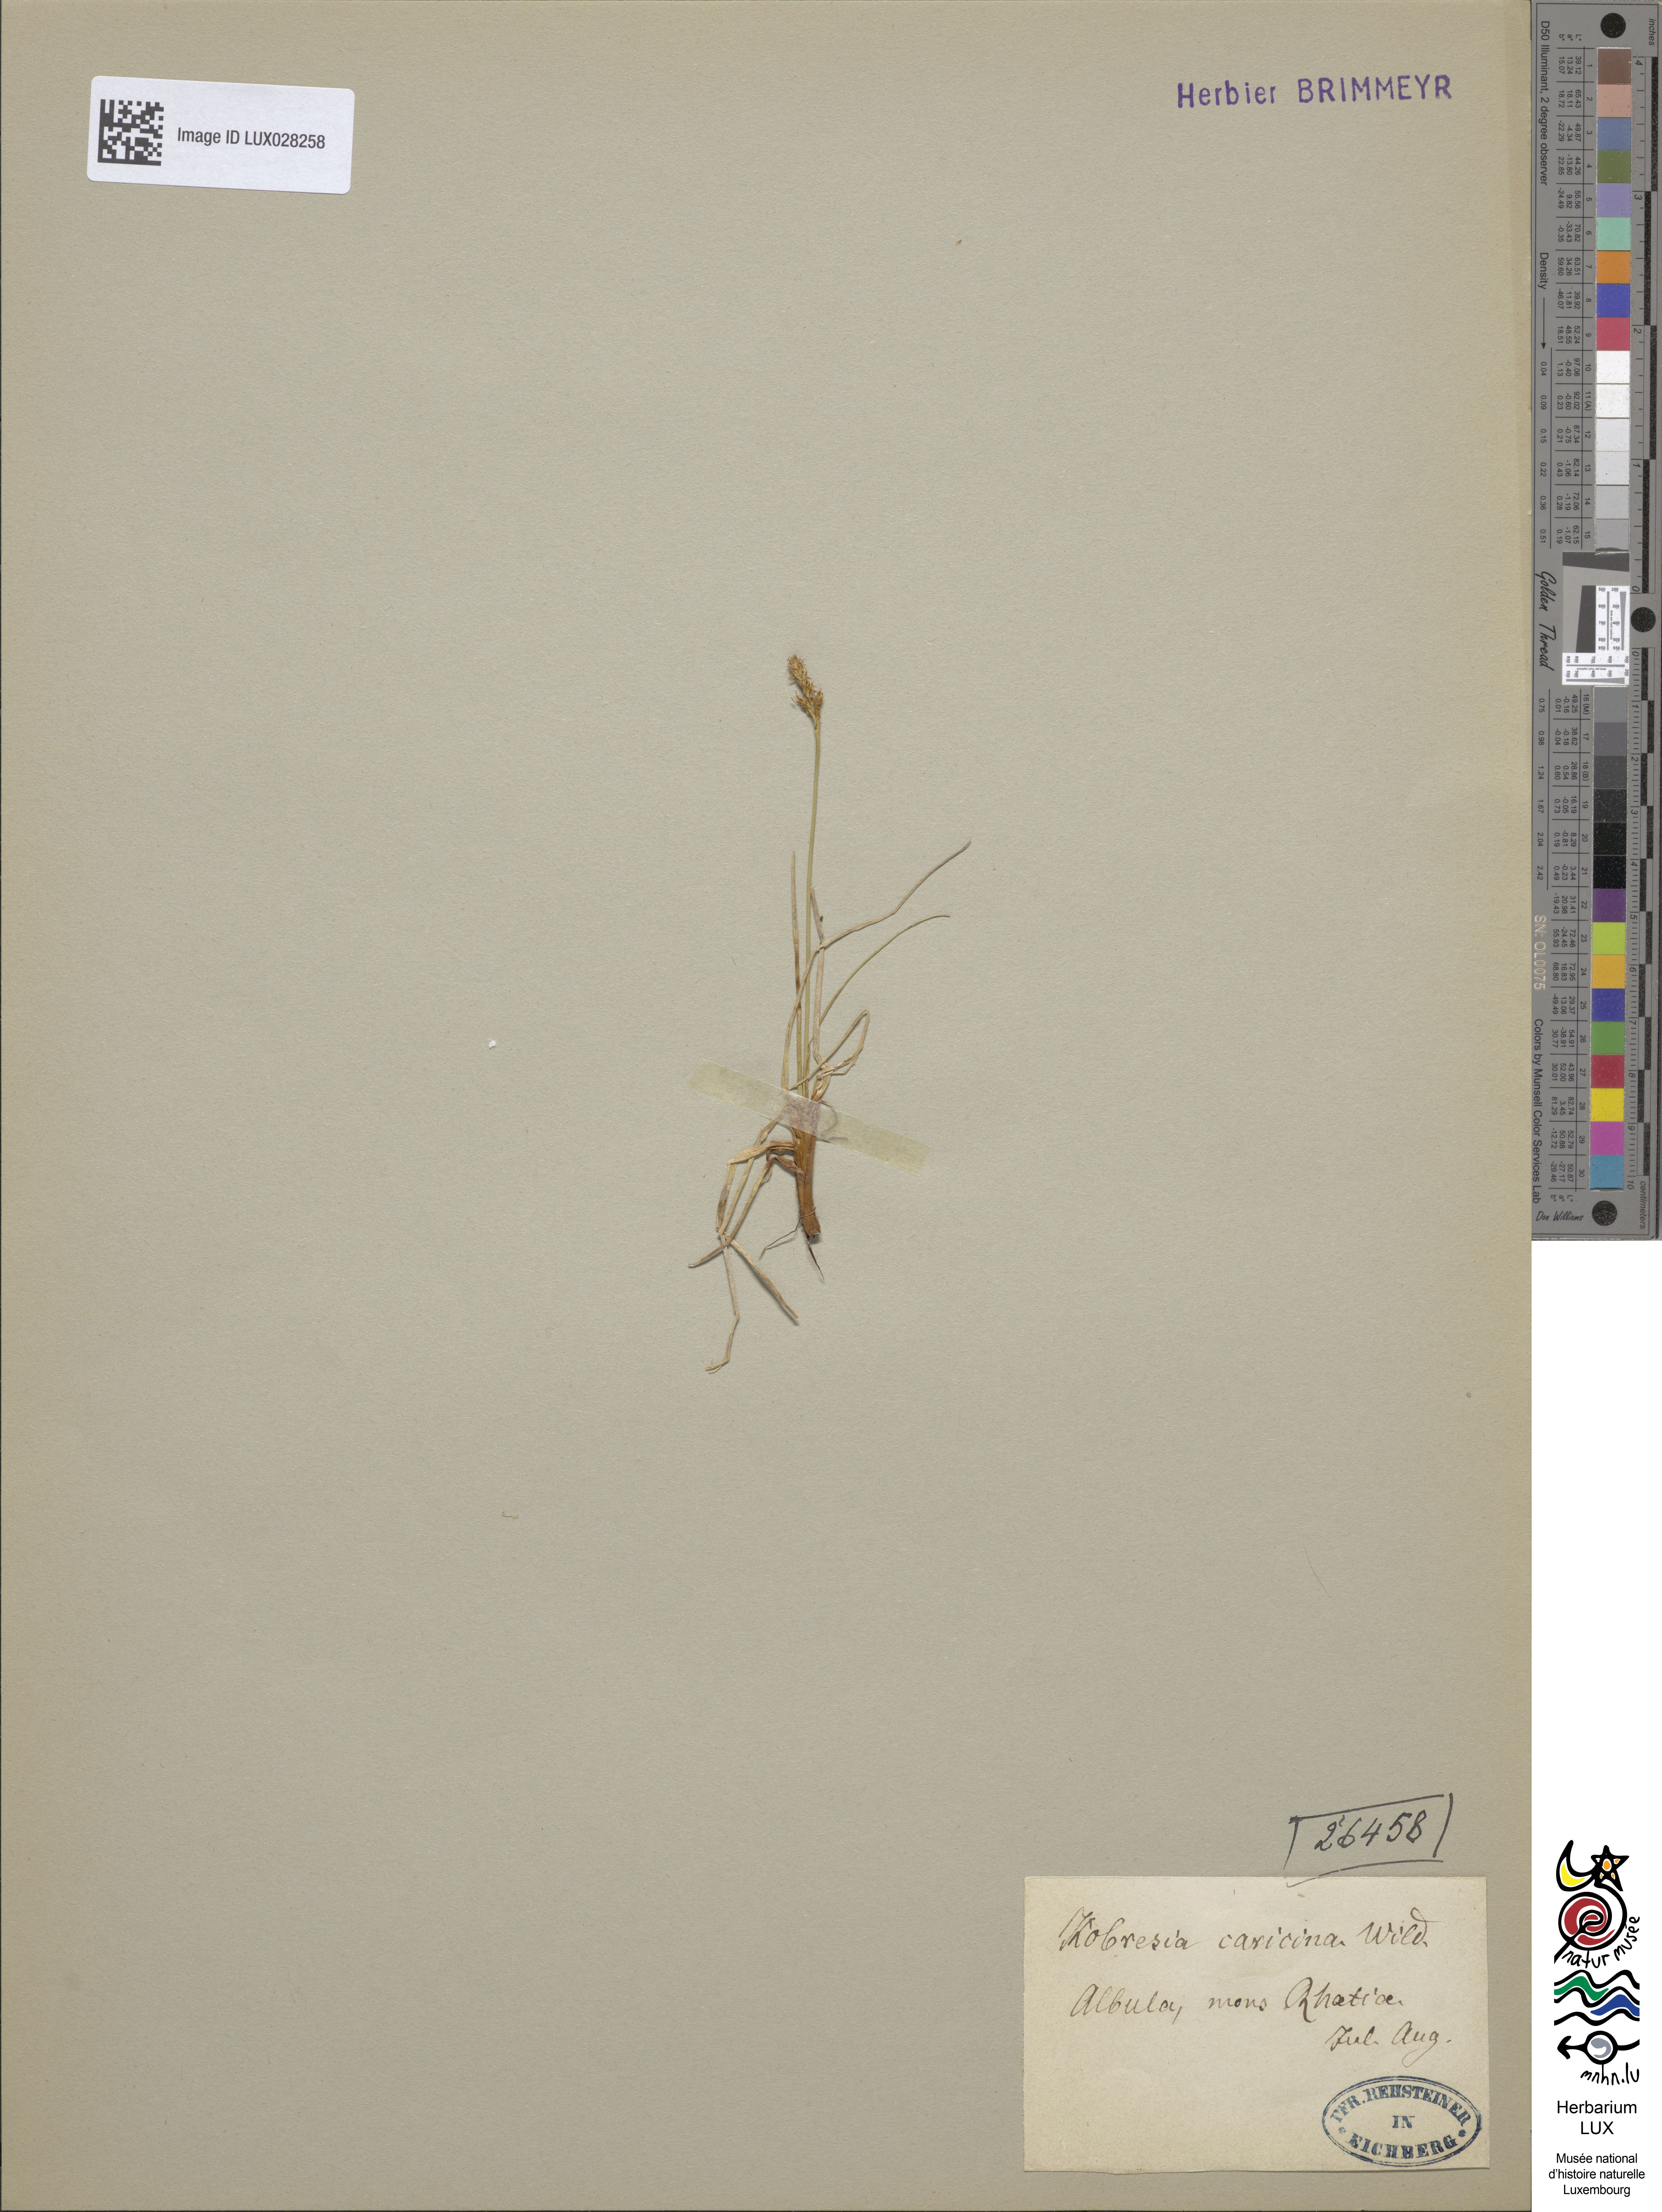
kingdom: Plantae
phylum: Tracheophyta
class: Liliopsida
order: Poales
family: Cyperaceae
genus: Carex
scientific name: Carex simpliciuscula
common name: Simple bog sedge
